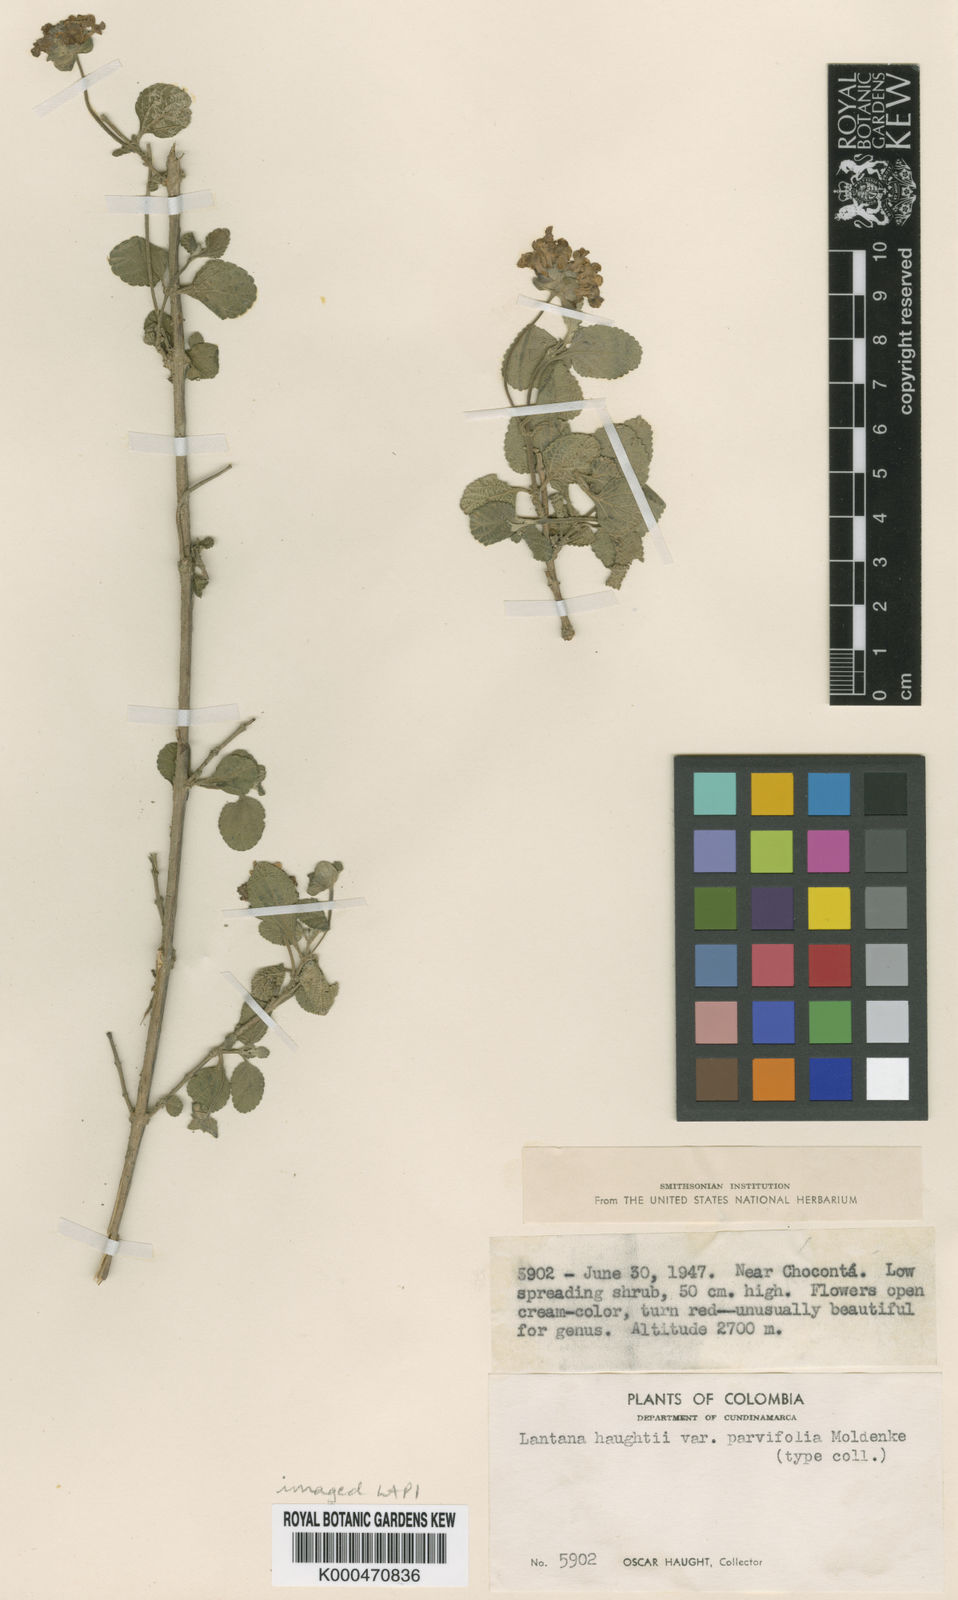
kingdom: Plantae
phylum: Tracheophyta
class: Magnoliopsida
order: Lamiales
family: Verbenaceae
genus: Lantana
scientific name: Lantana haughtii
